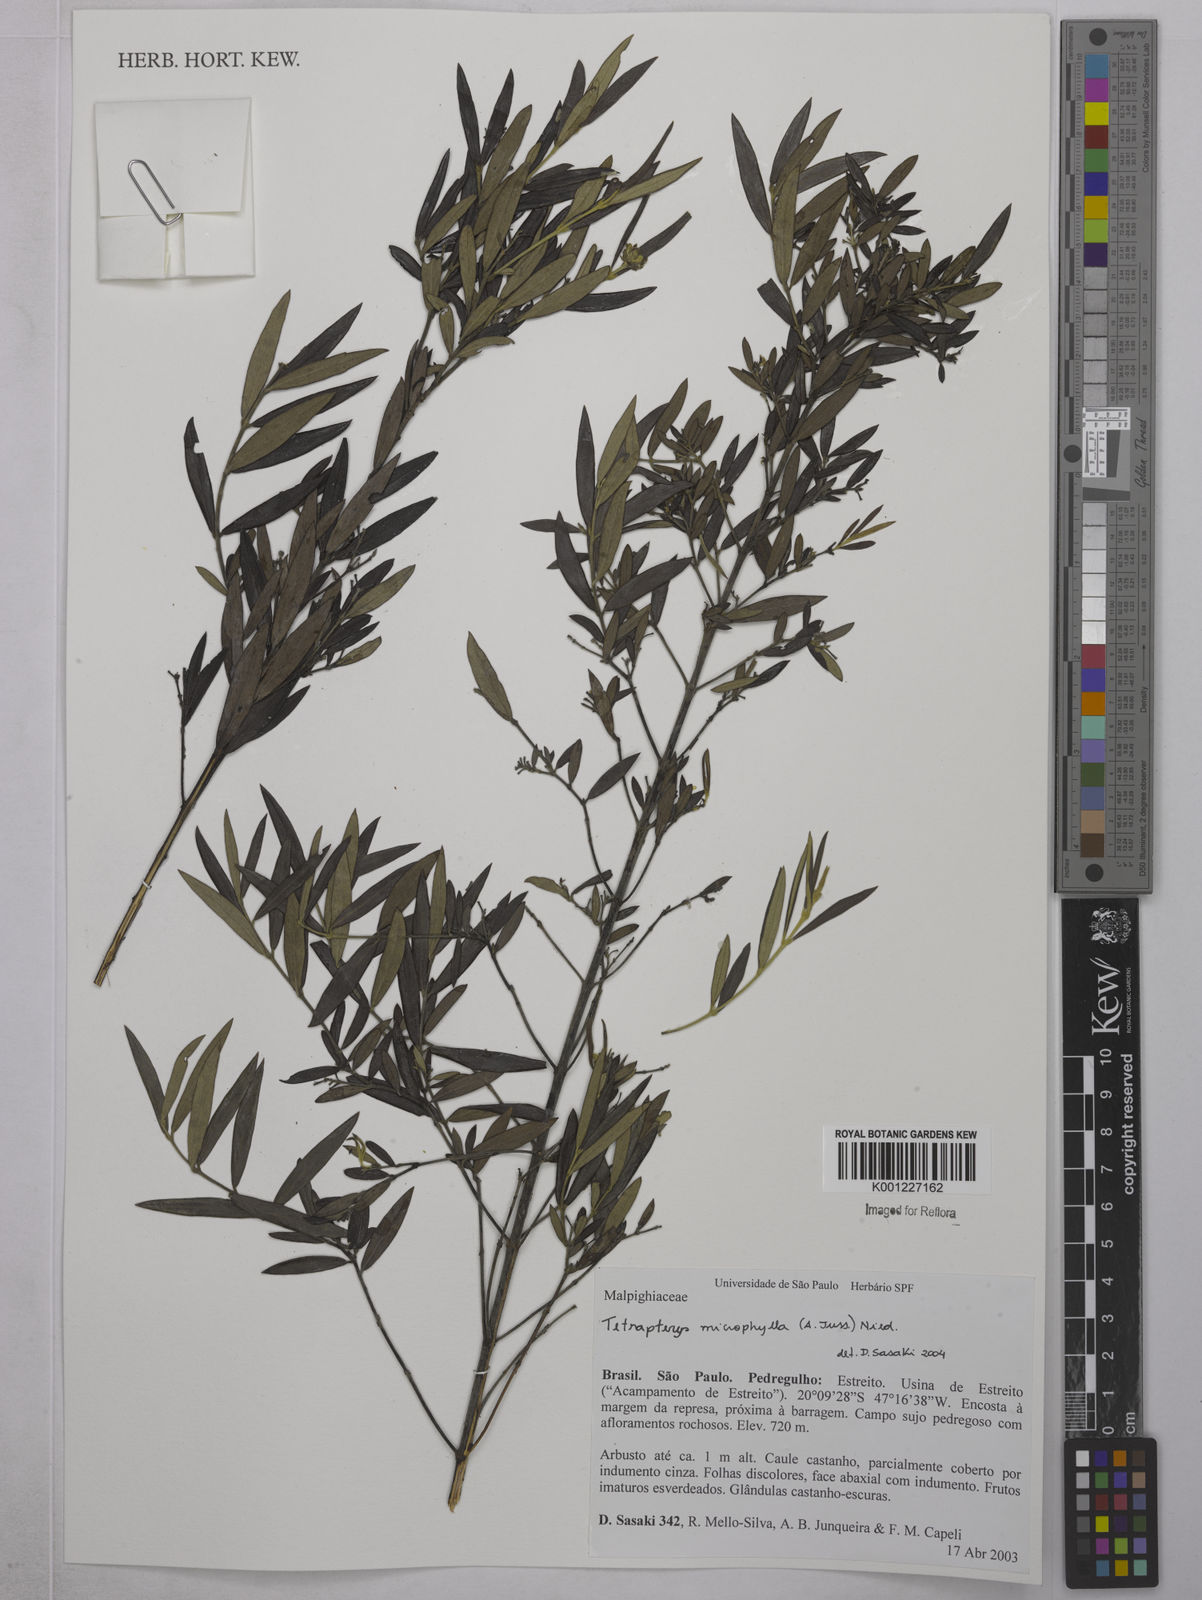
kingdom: Plantae
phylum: Tracheophyta
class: Magnoliopsida
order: Malpighiales
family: Malpighiaceae
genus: Glicophyllum
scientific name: Glicophyllum microphyllum
